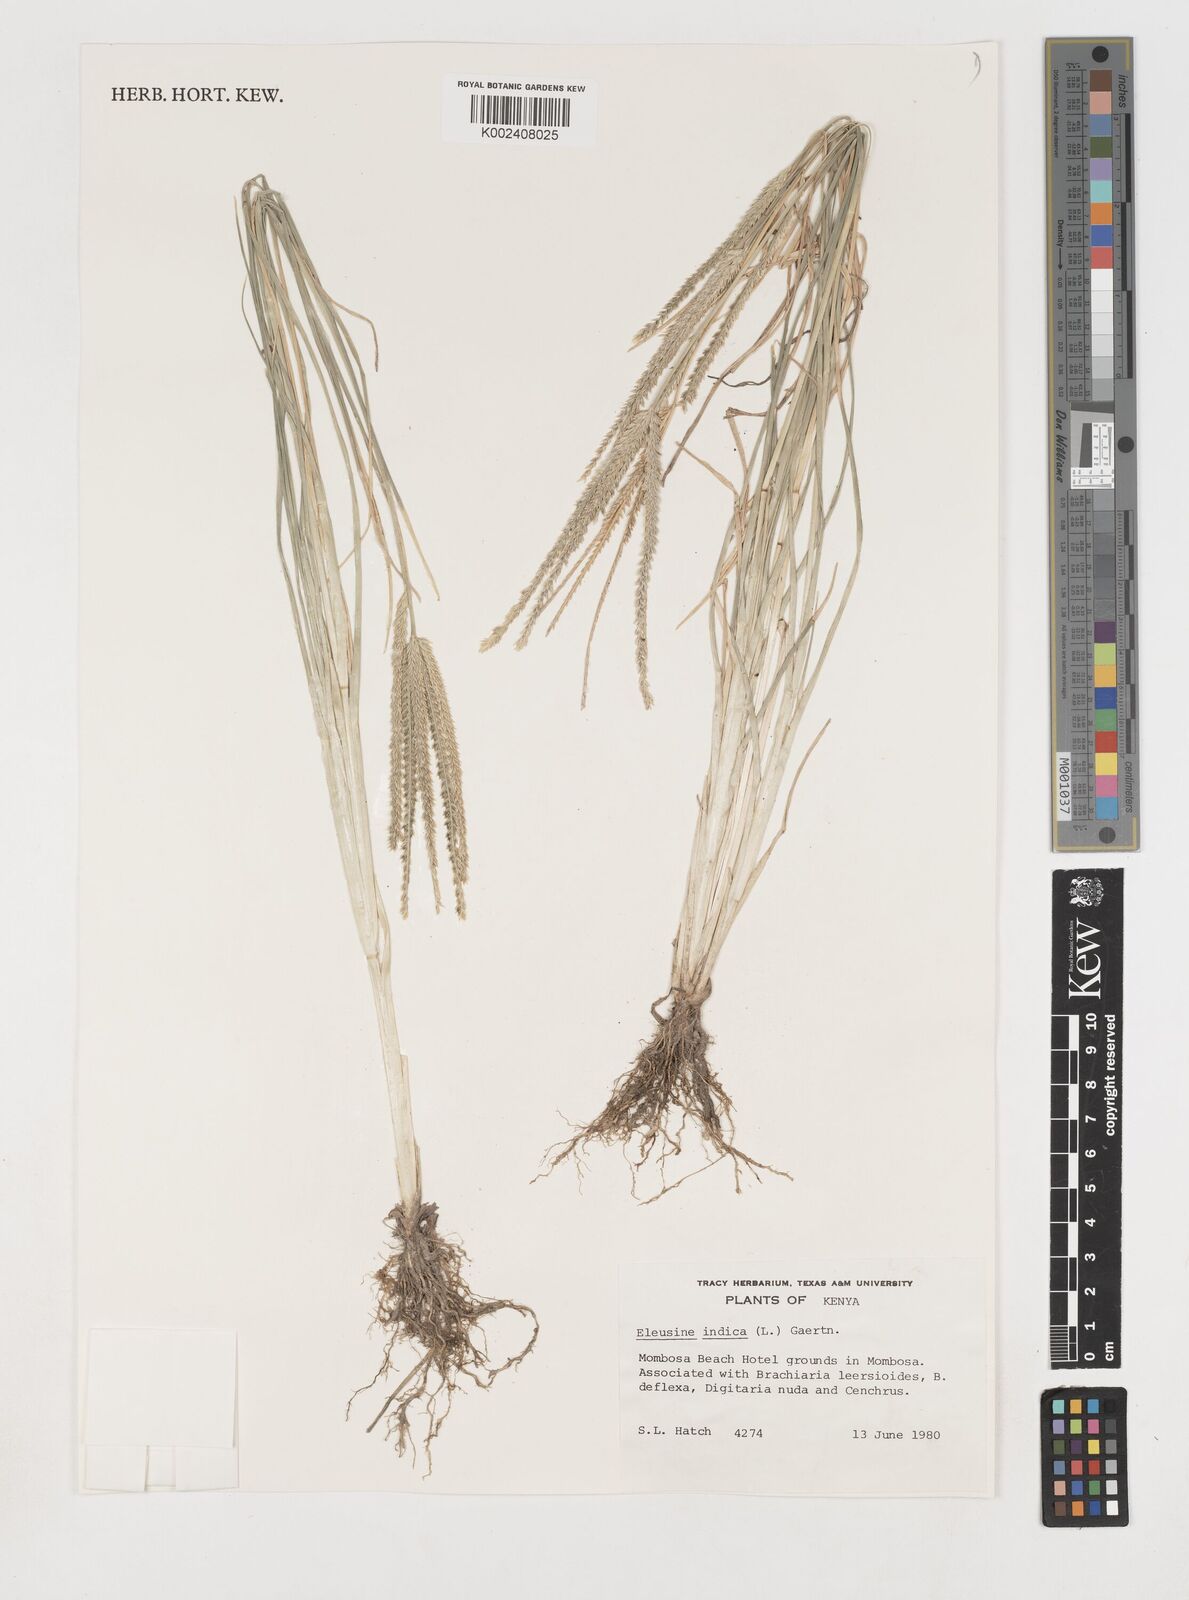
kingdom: Plantae
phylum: Tracheophyta
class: Liliopsida
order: Poales
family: Poaceae
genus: Eleusine
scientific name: Eleusine indica
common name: Yard-grass
